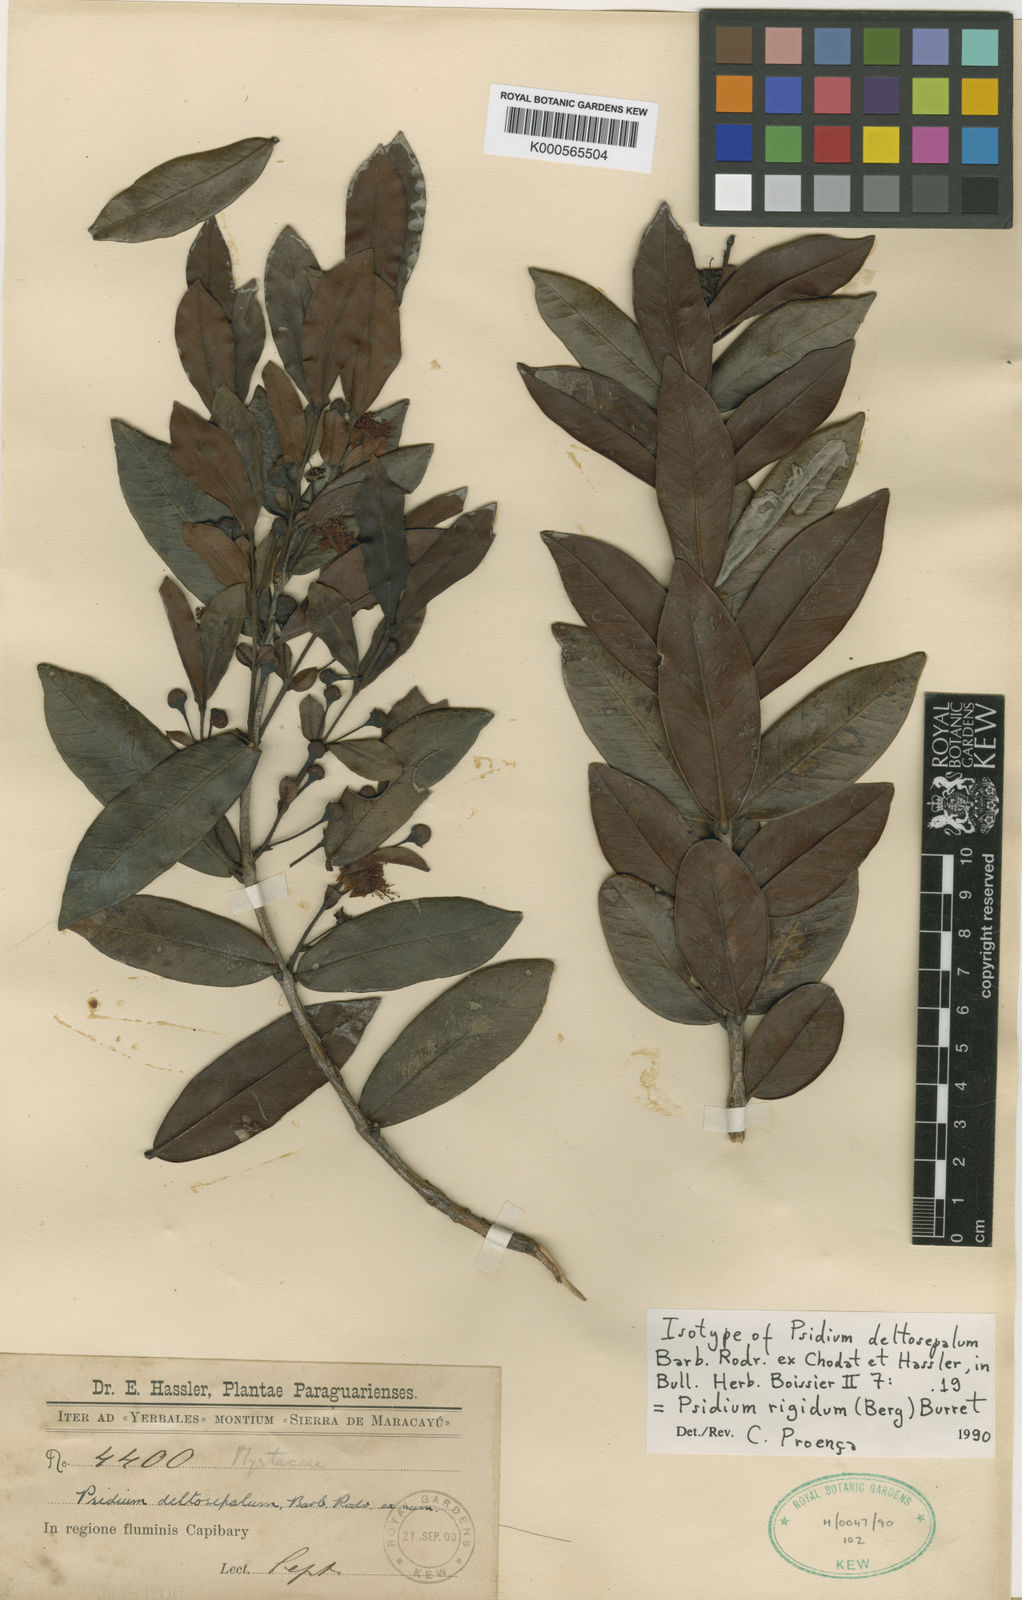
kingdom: Plantae
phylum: Tracheophyta
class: Magnoliopsida
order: Myrtales
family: Myrtaceae
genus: Psidium
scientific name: Psidium salutare
